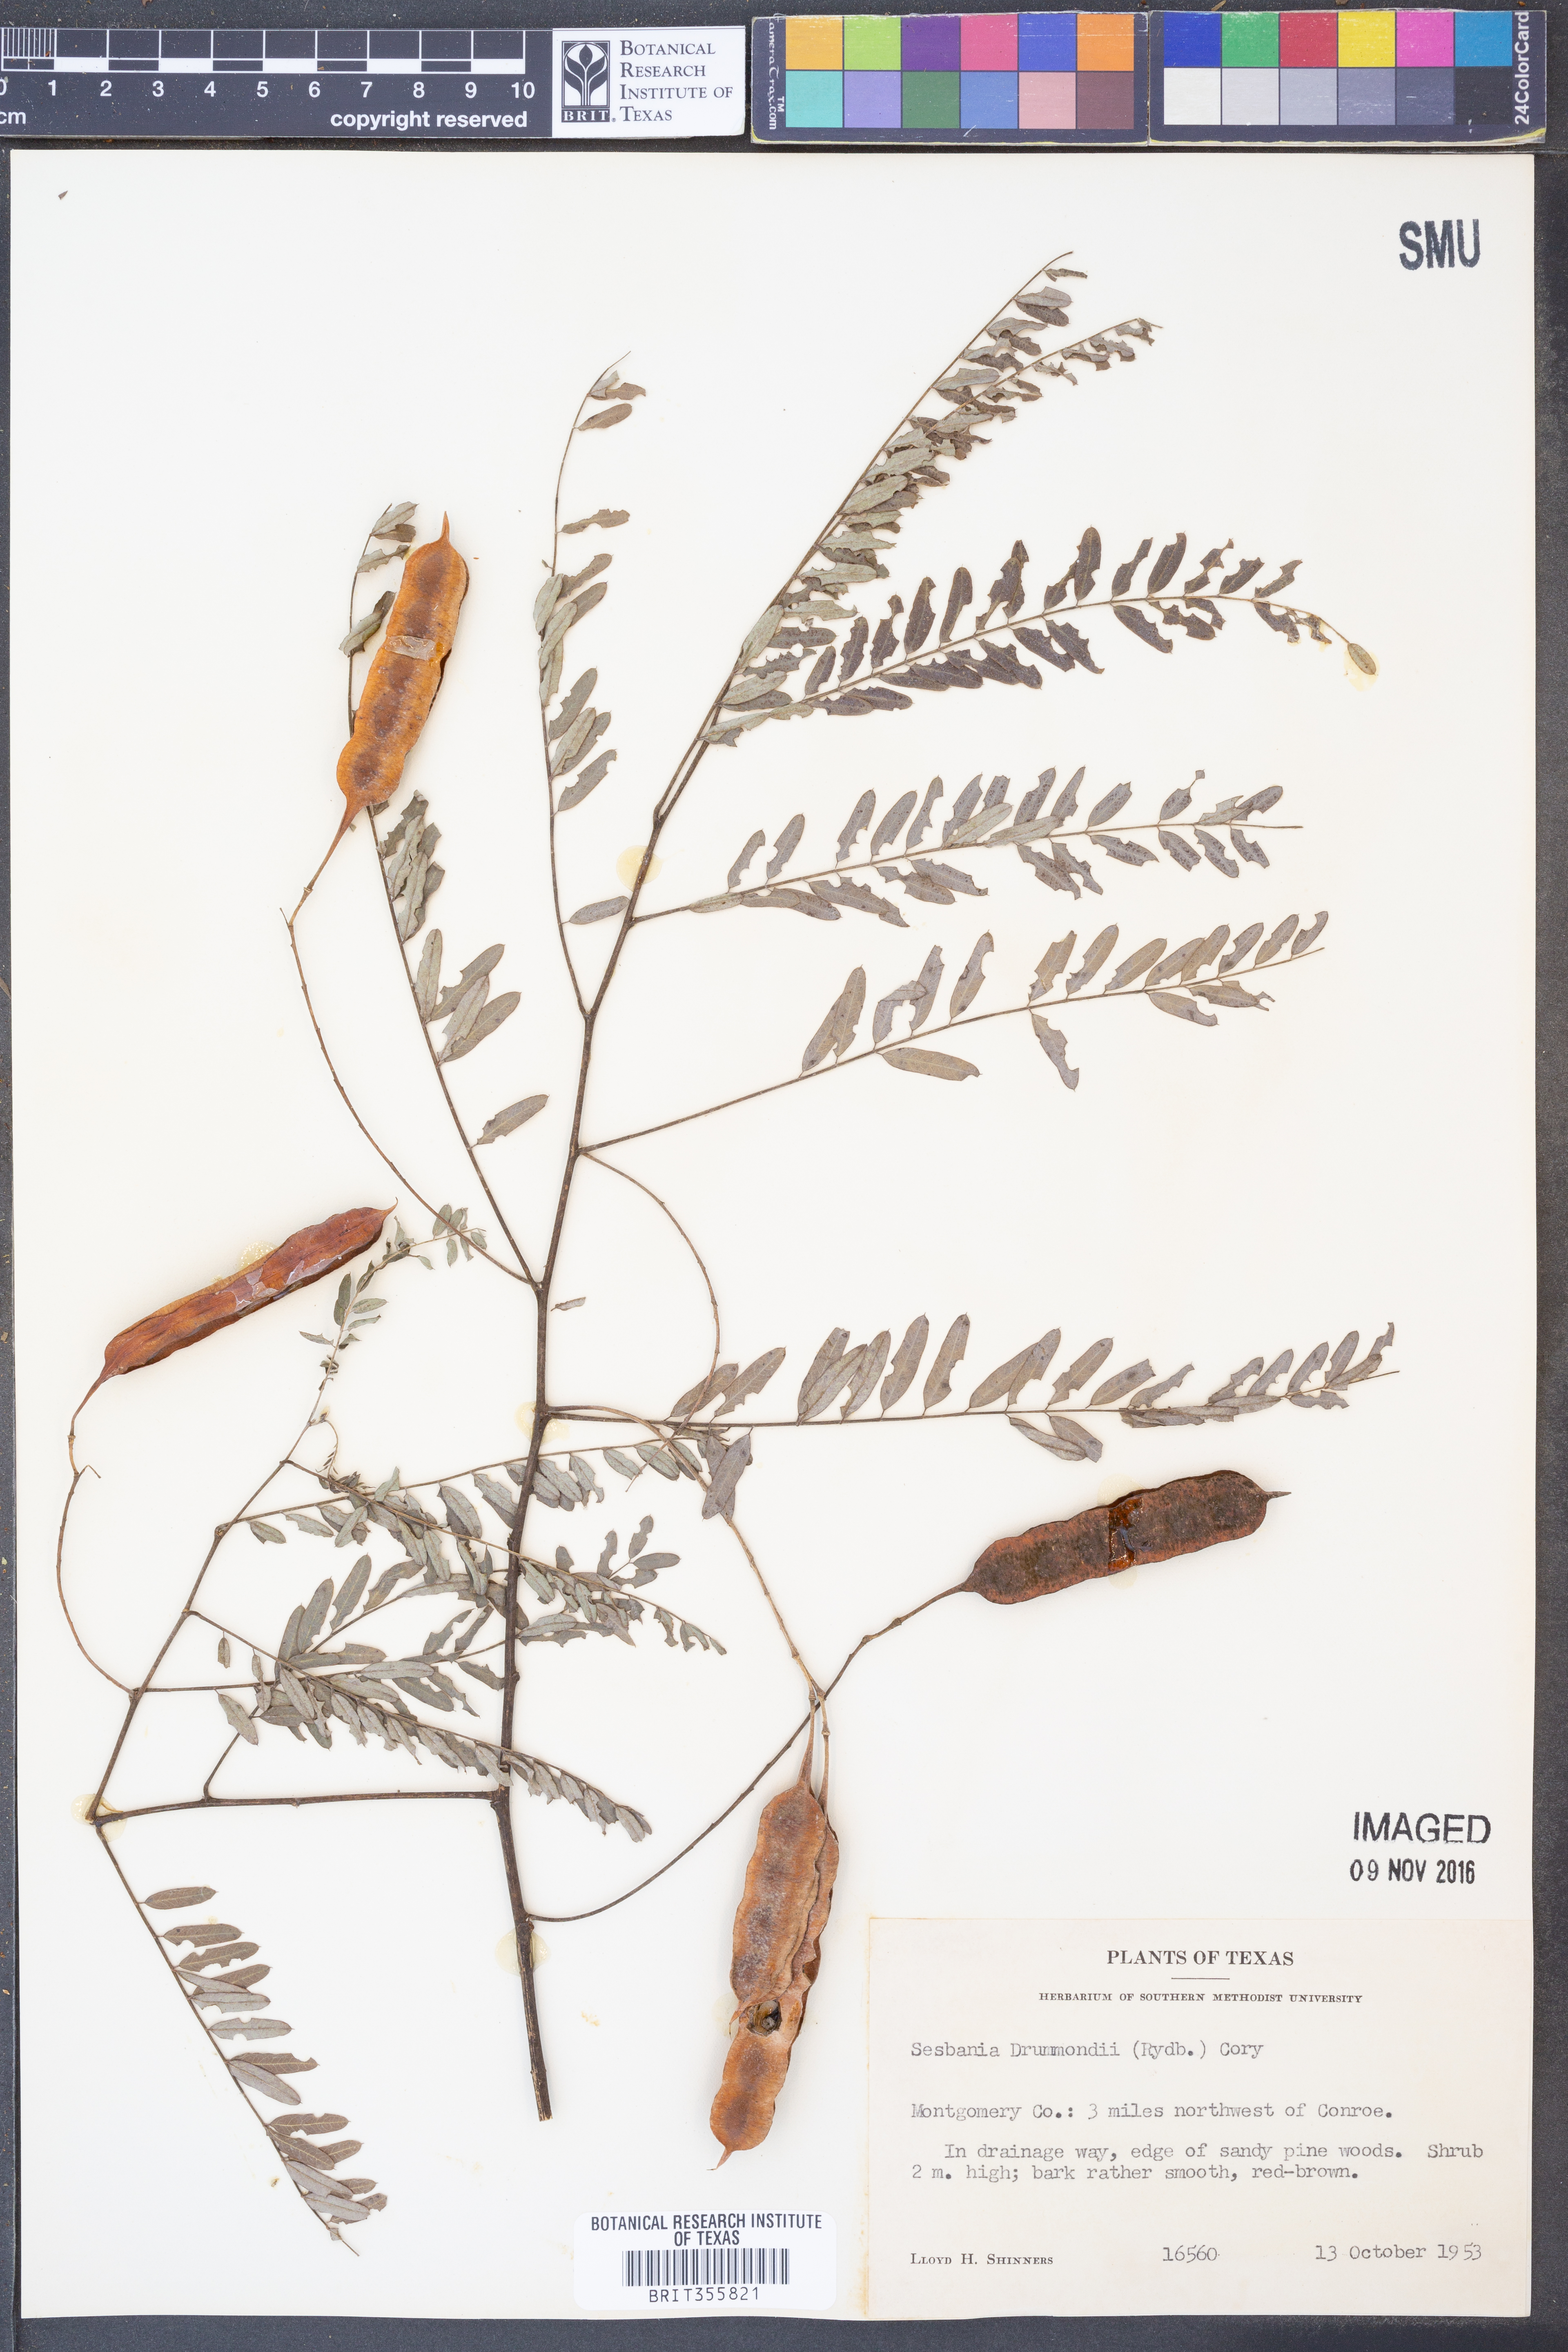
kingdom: Plantae
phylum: Tracheophyta
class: Magnoliopsida
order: Fabales
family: Fabaceae
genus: Sesbania
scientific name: Sesbania drummondii
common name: Poison-bean
